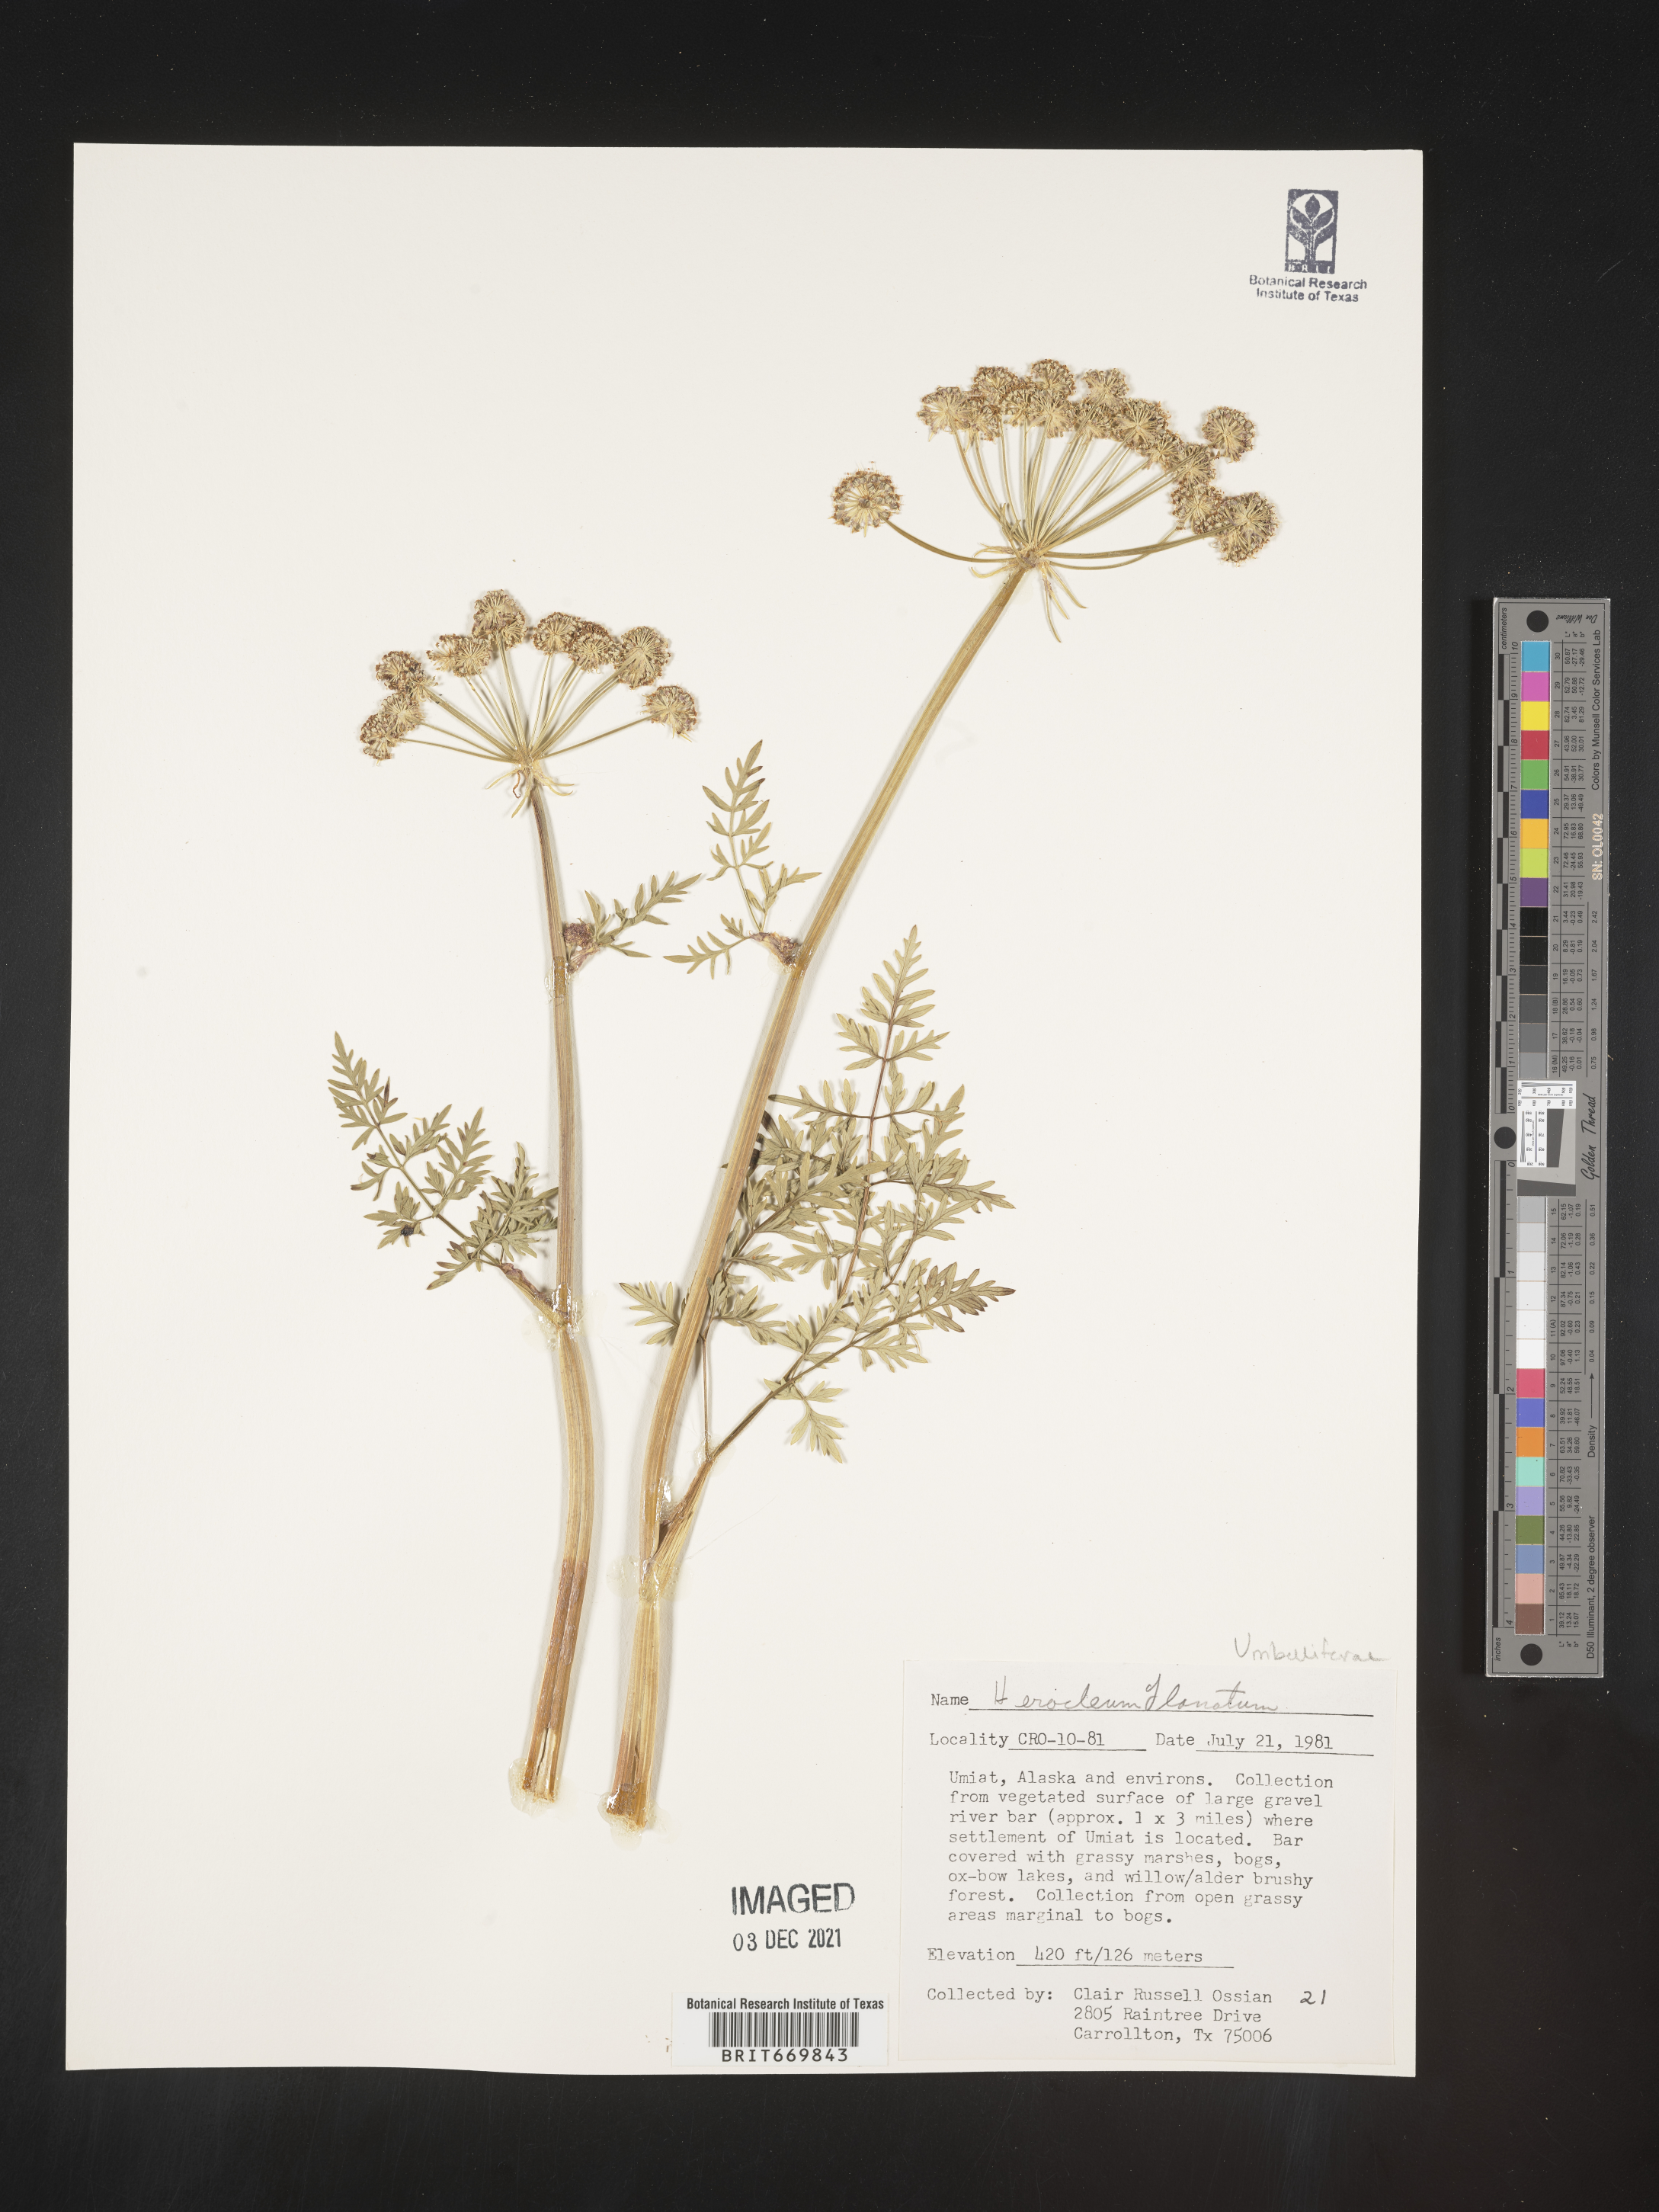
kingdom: Plantae
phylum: Tracheophyta
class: Magnoliopsida
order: Apiales
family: Apiaceae
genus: Heracleum
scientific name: Heracleum
